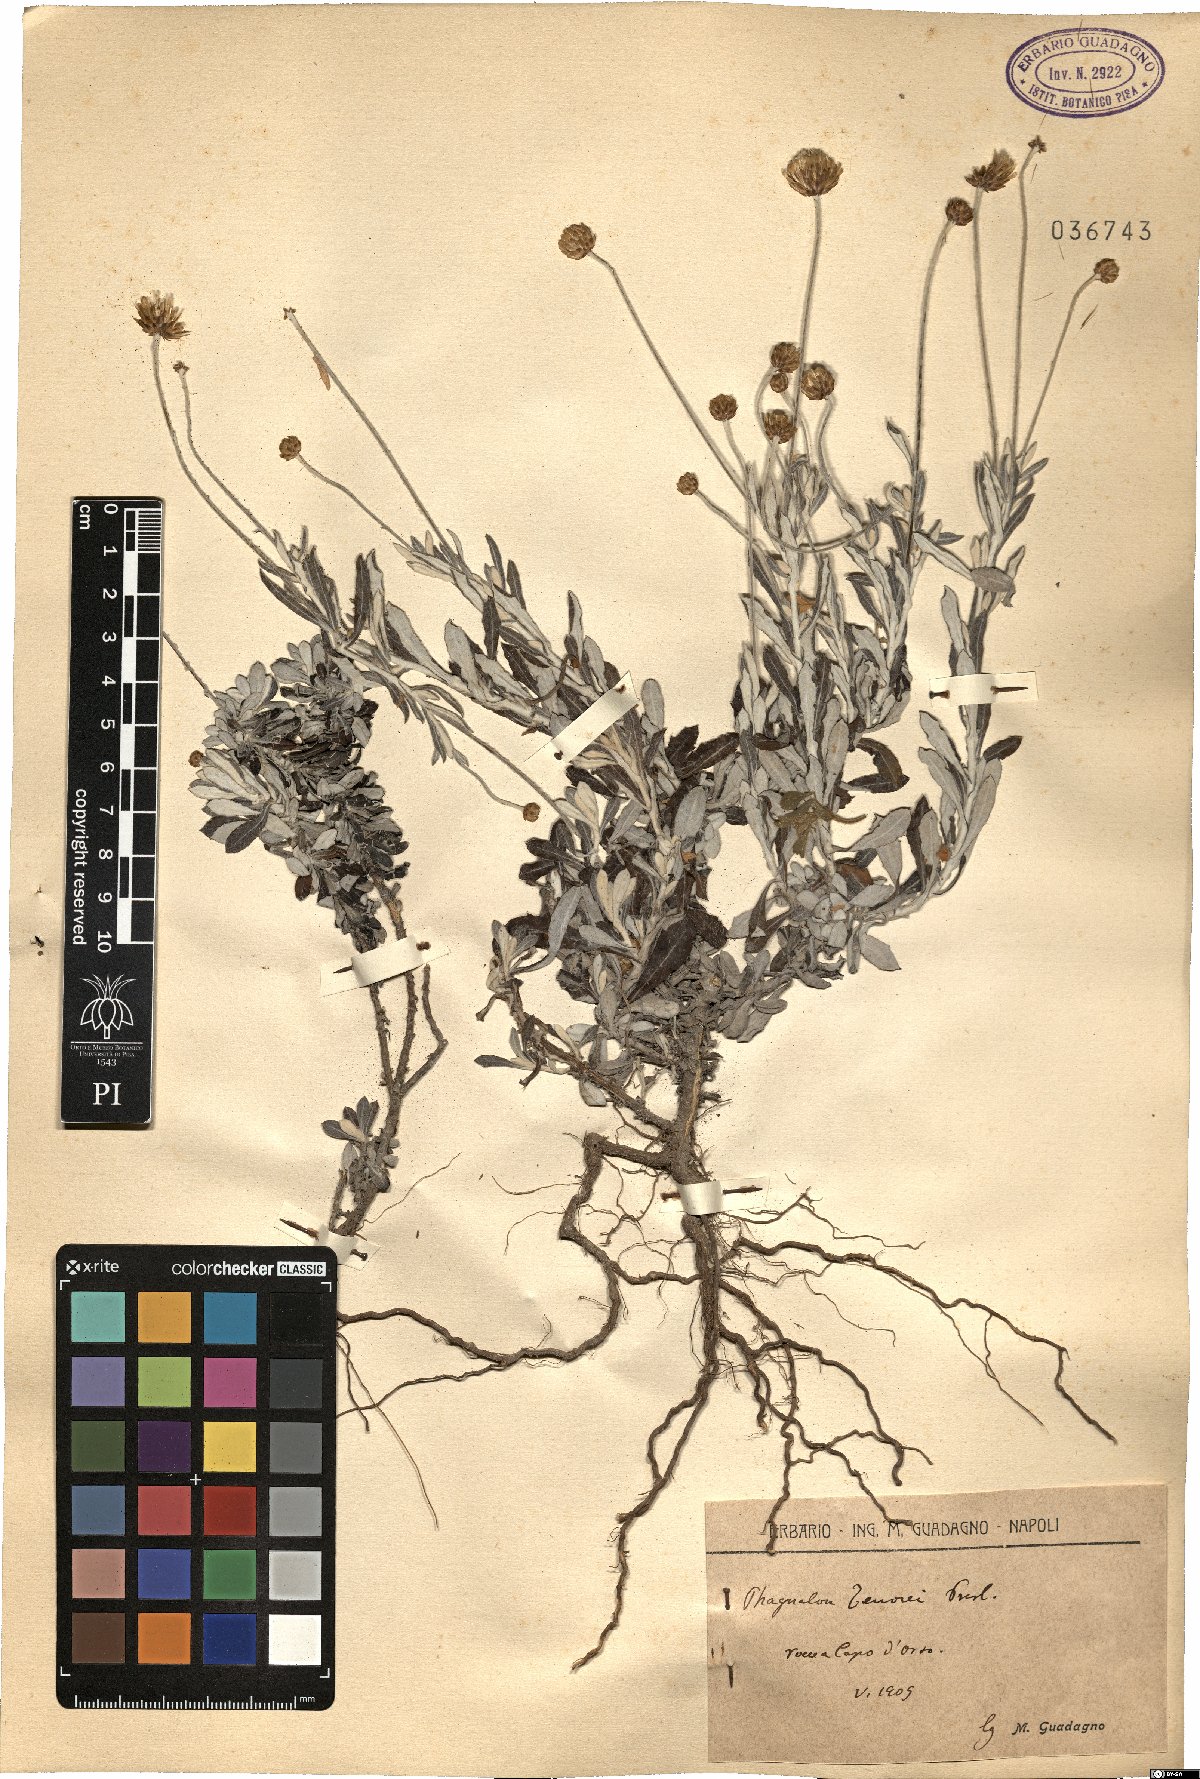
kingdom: Plantae
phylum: Tracheophyta
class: Magnoliopsida
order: Asterales
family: Asteraceae
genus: Phagnalon
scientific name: Phagnalon graecum
